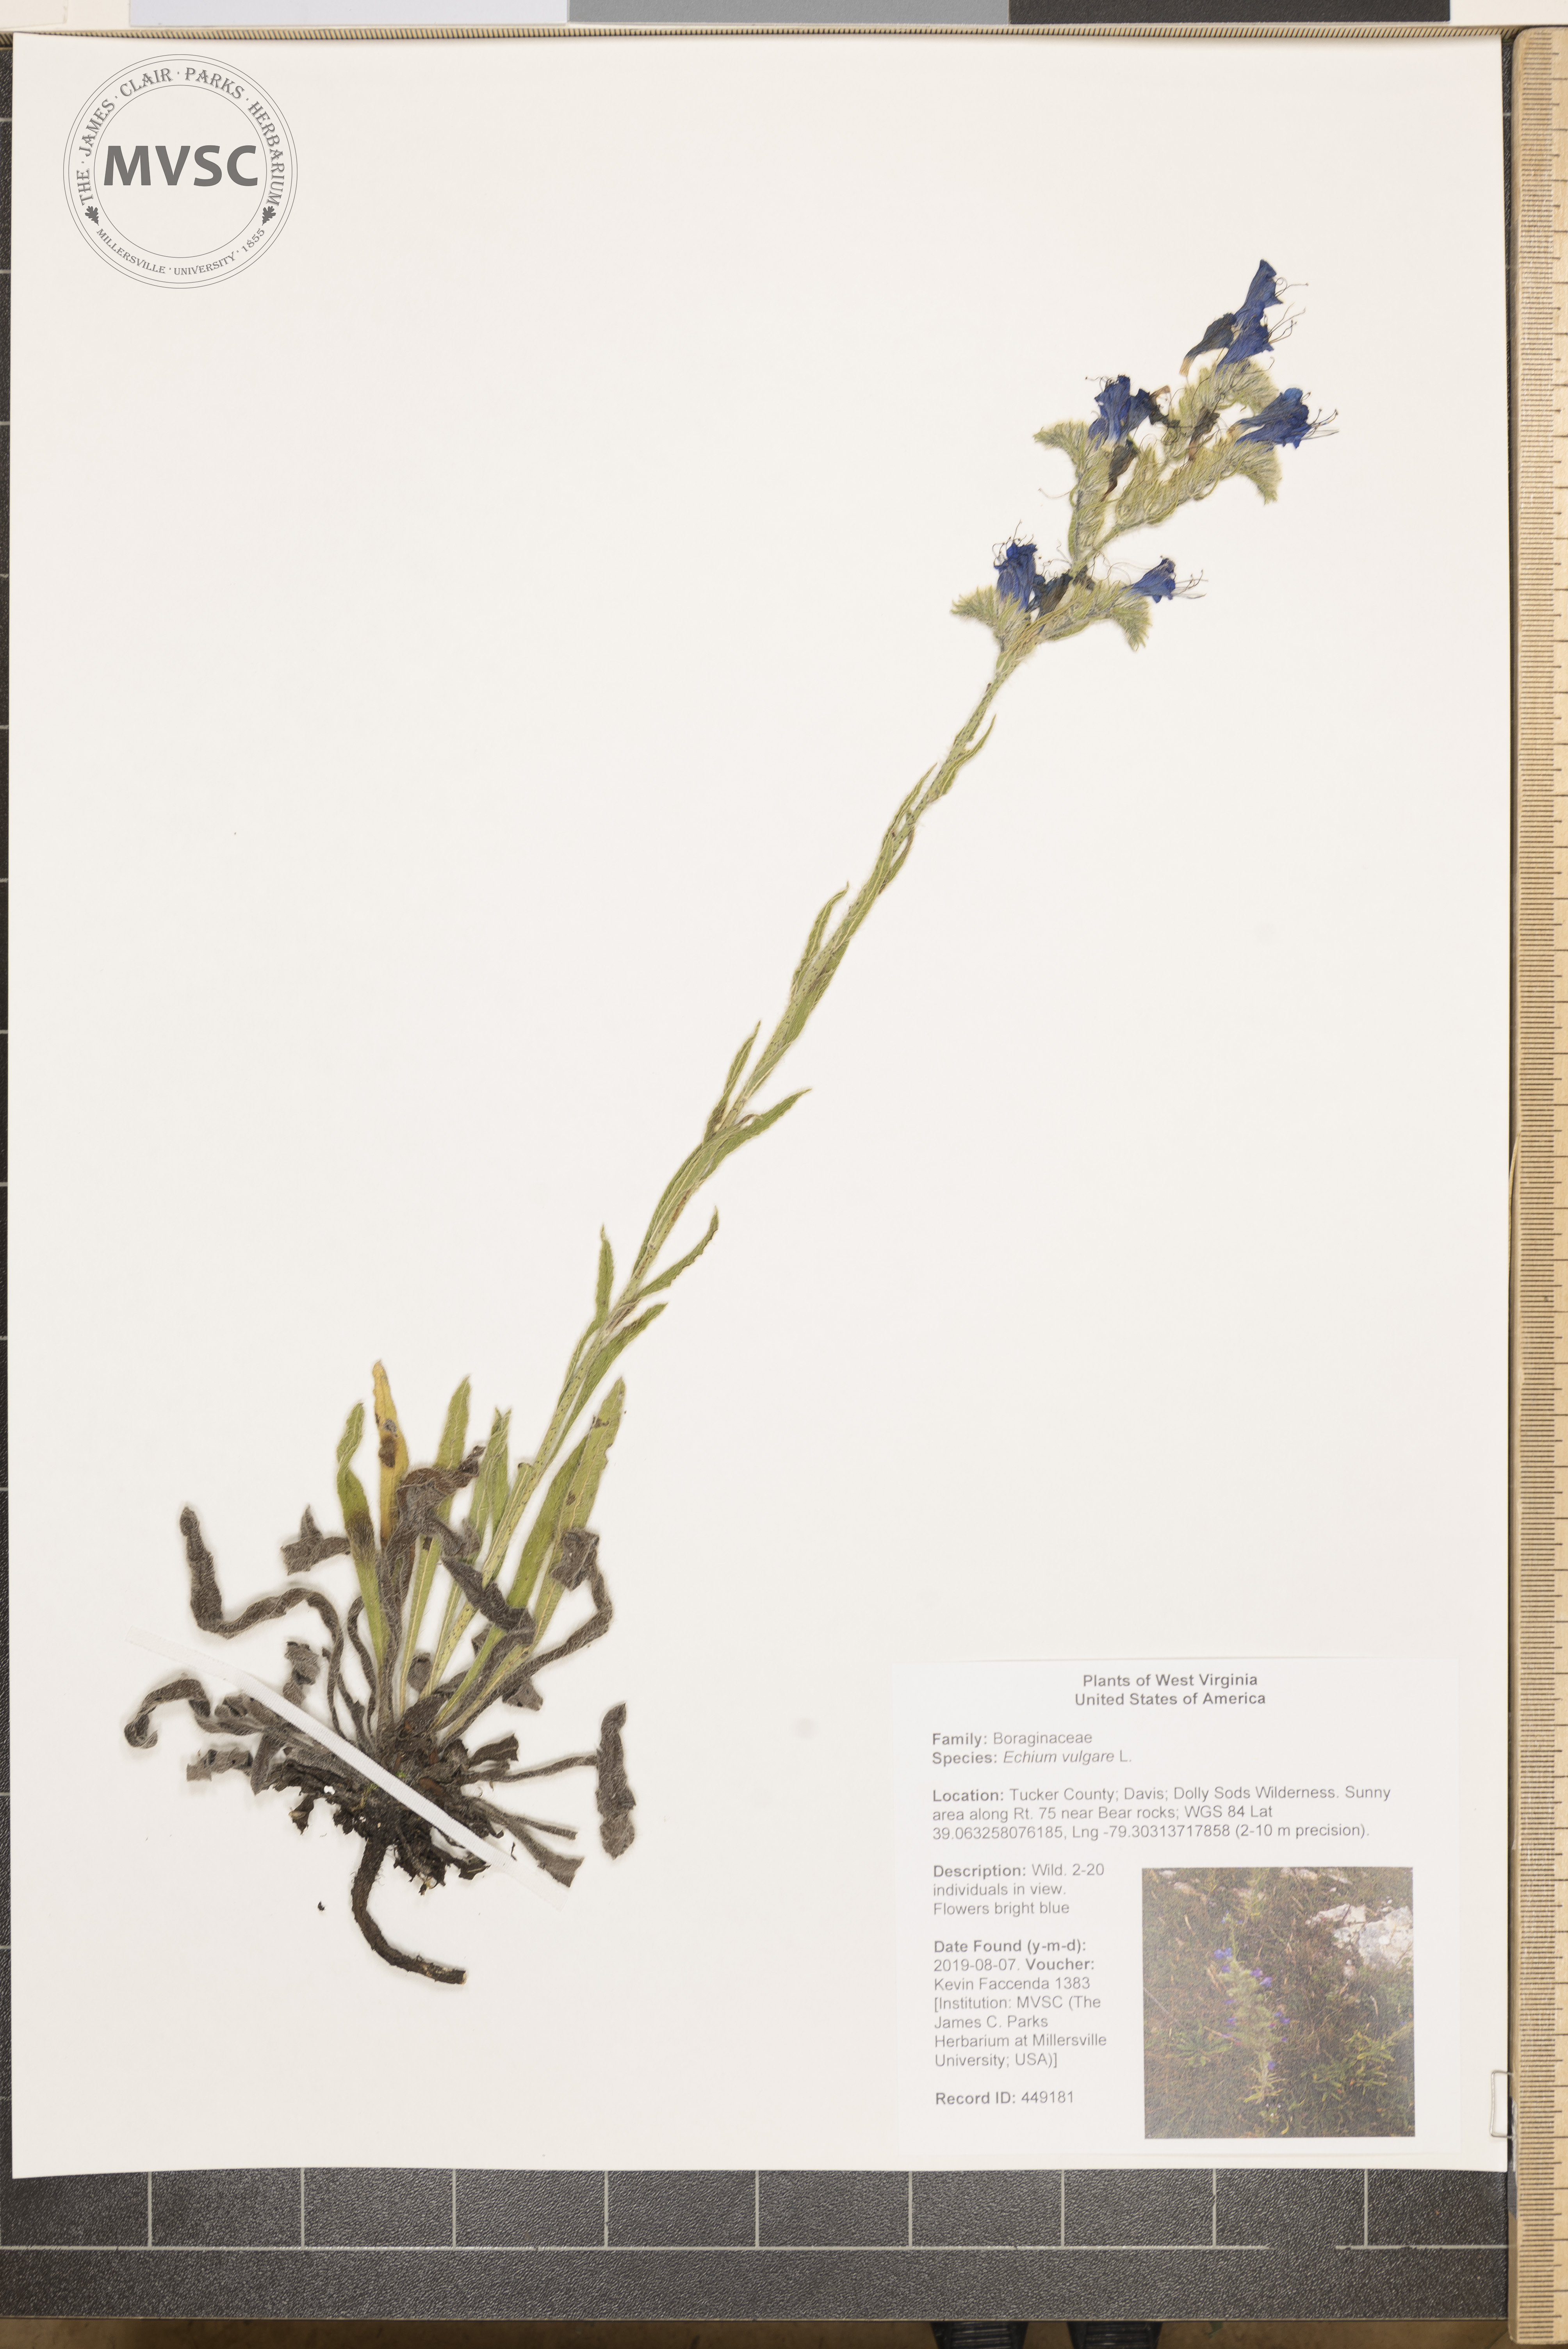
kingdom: Plantae
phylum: Tracheophyta
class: Magnoliopsida
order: Boraginales
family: Boraginaceae
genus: Echium
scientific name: Echium vulgare
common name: Common viper's bugloss
